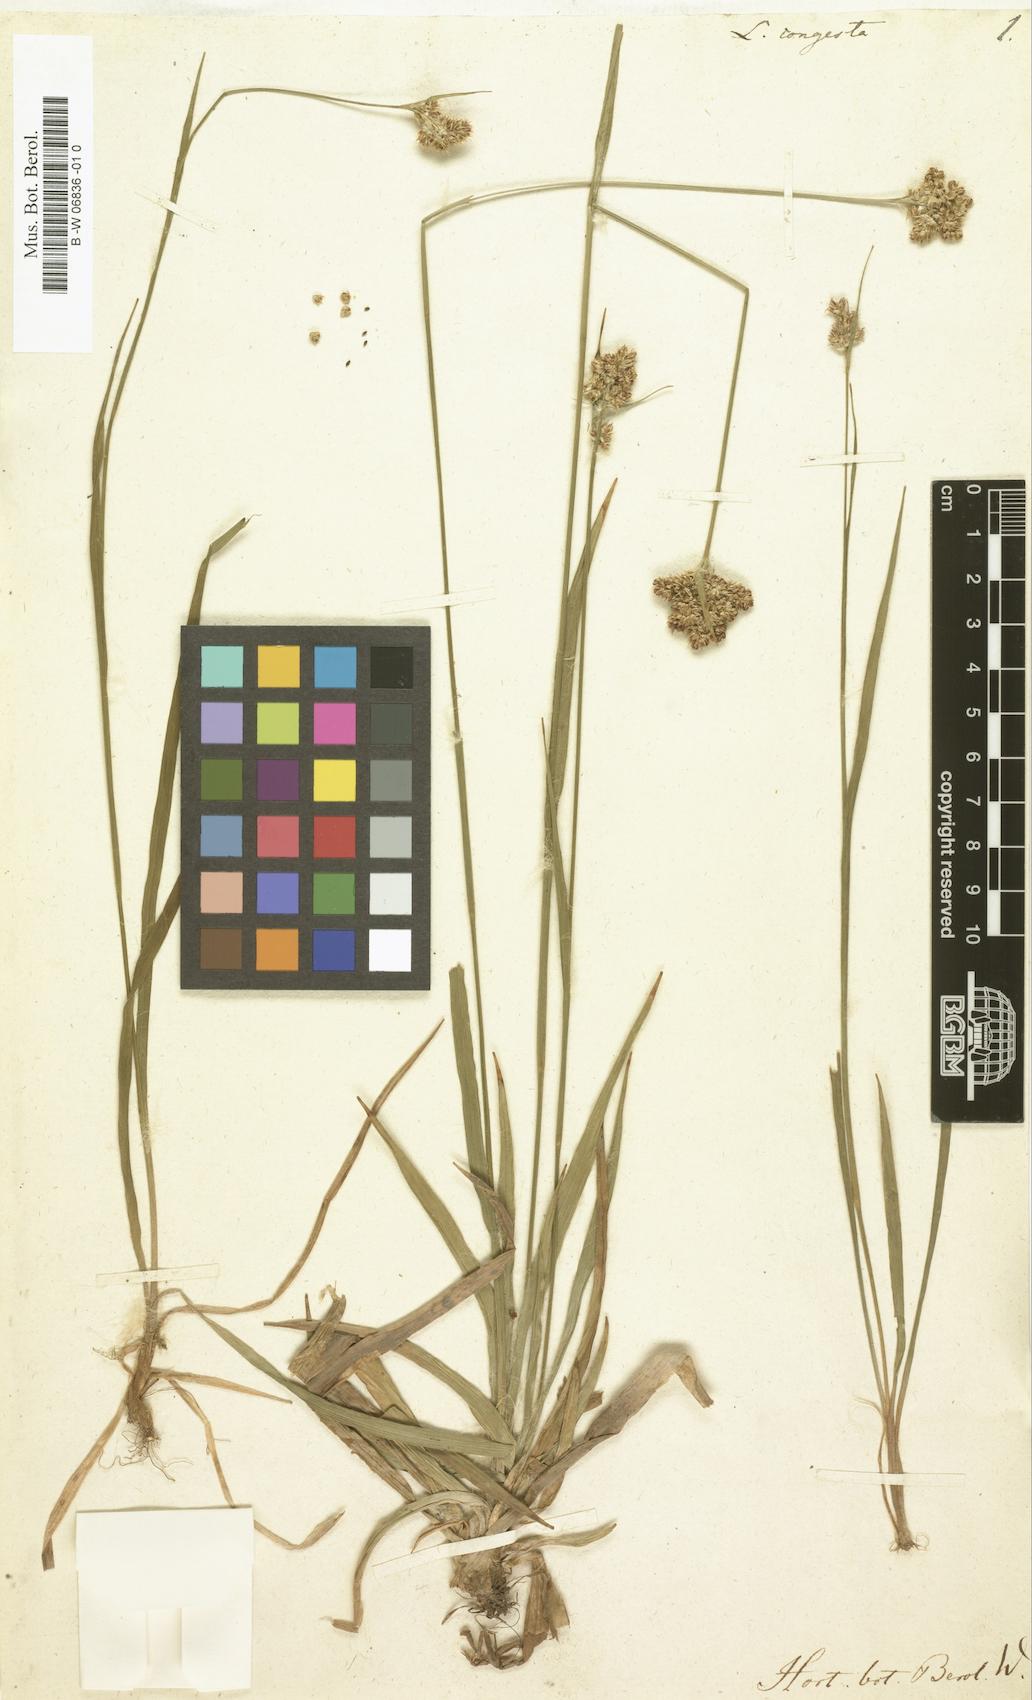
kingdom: Plantae
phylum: Tracheophyta
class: Liliopsida
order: Poales
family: Juncaceae
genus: Luzula
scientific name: Luzula congesta
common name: Heath woodrush
